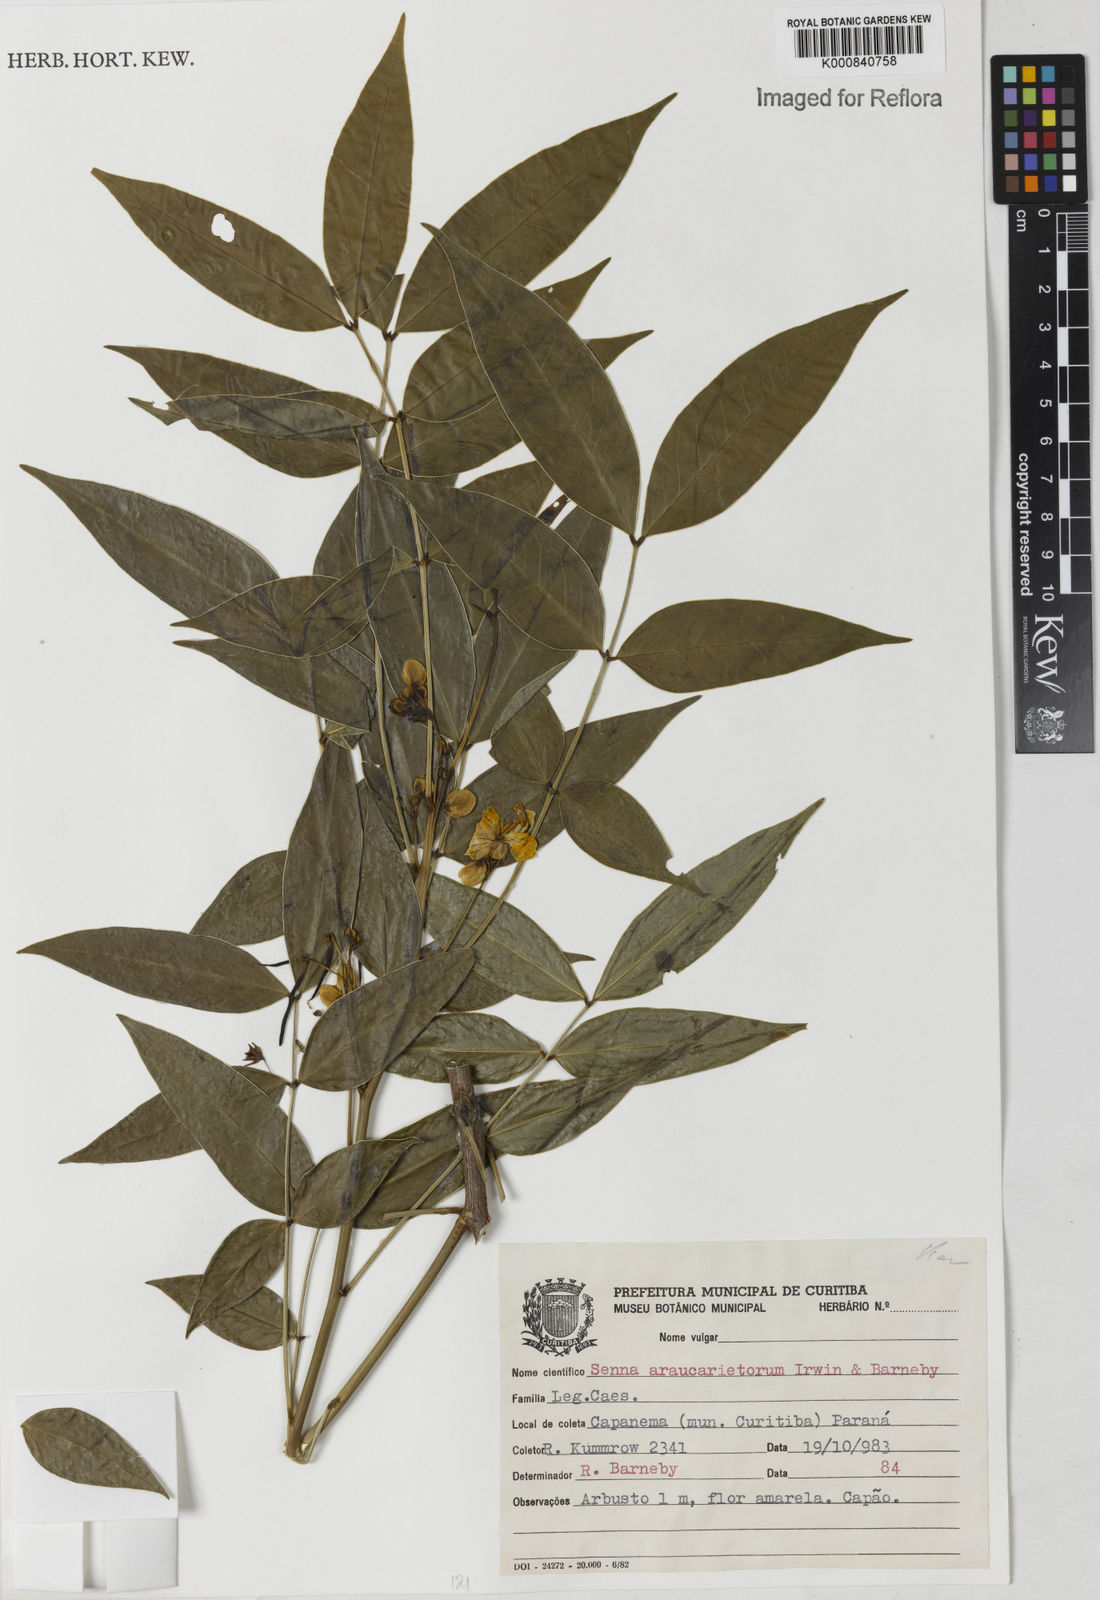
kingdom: Plantae
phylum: Tracheophyta
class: Magnoliopsida
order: Fabales
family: Fabaceae
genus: Senna
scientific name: Senna araucarietorum
